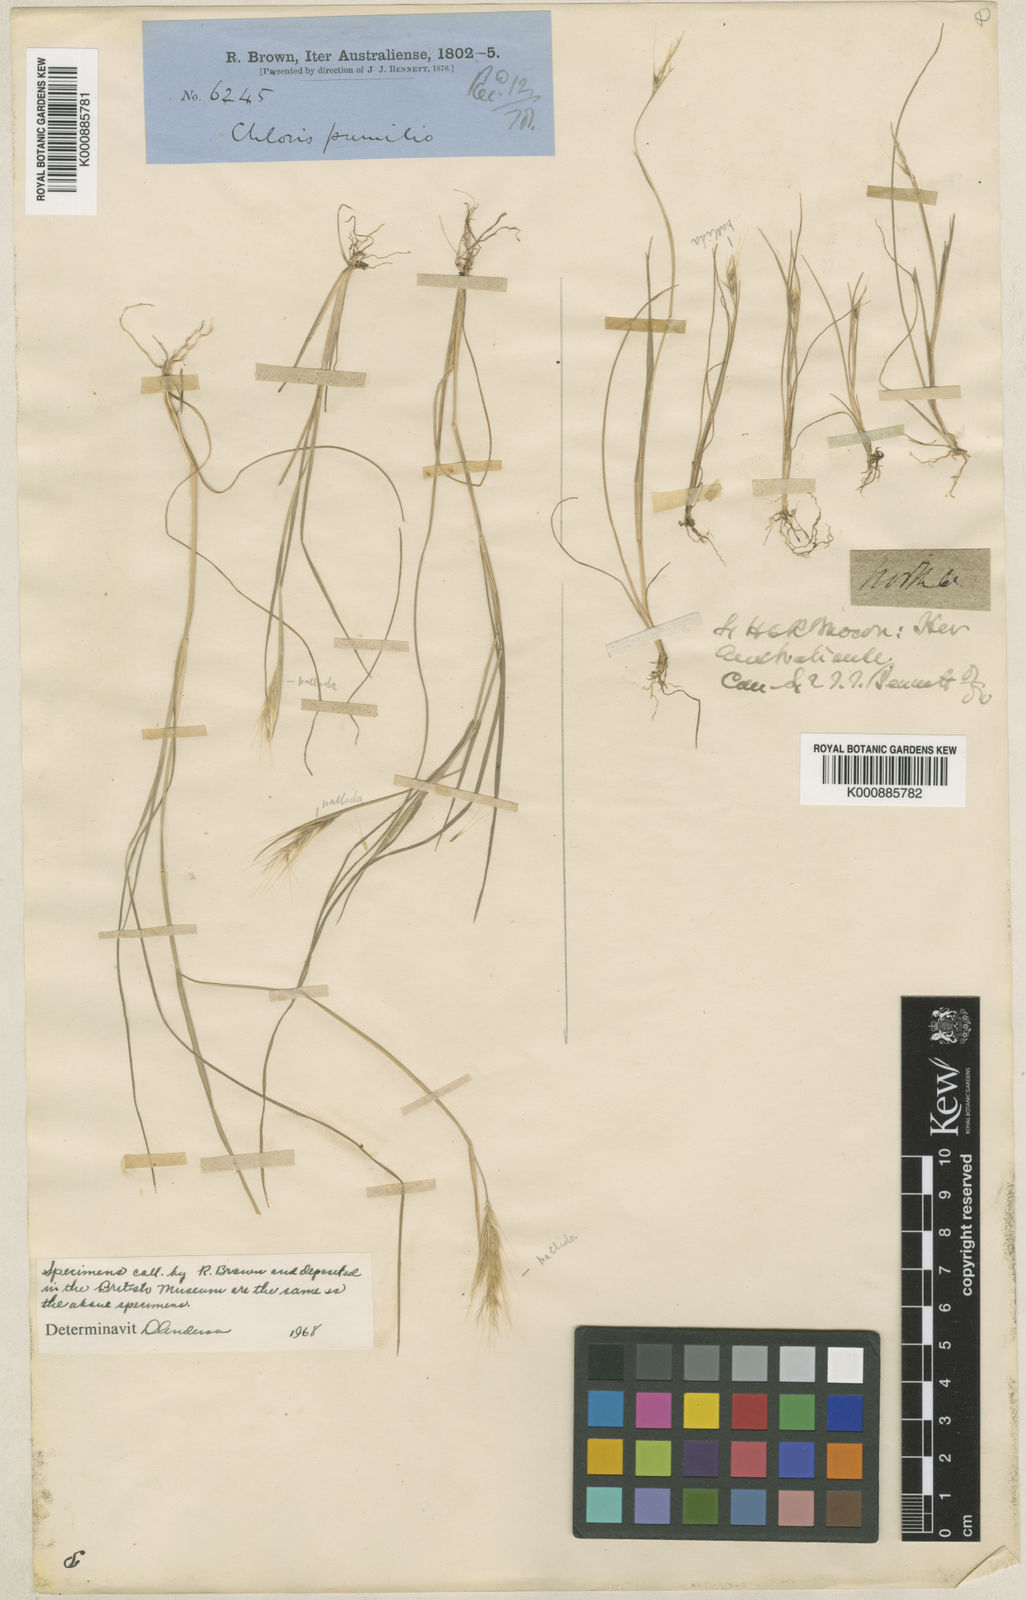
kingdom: Plantae
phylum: Tracheophyta
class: Liliopsida
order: Poales
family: Poaceae
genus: Chloris
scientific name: Chloris pumilio
